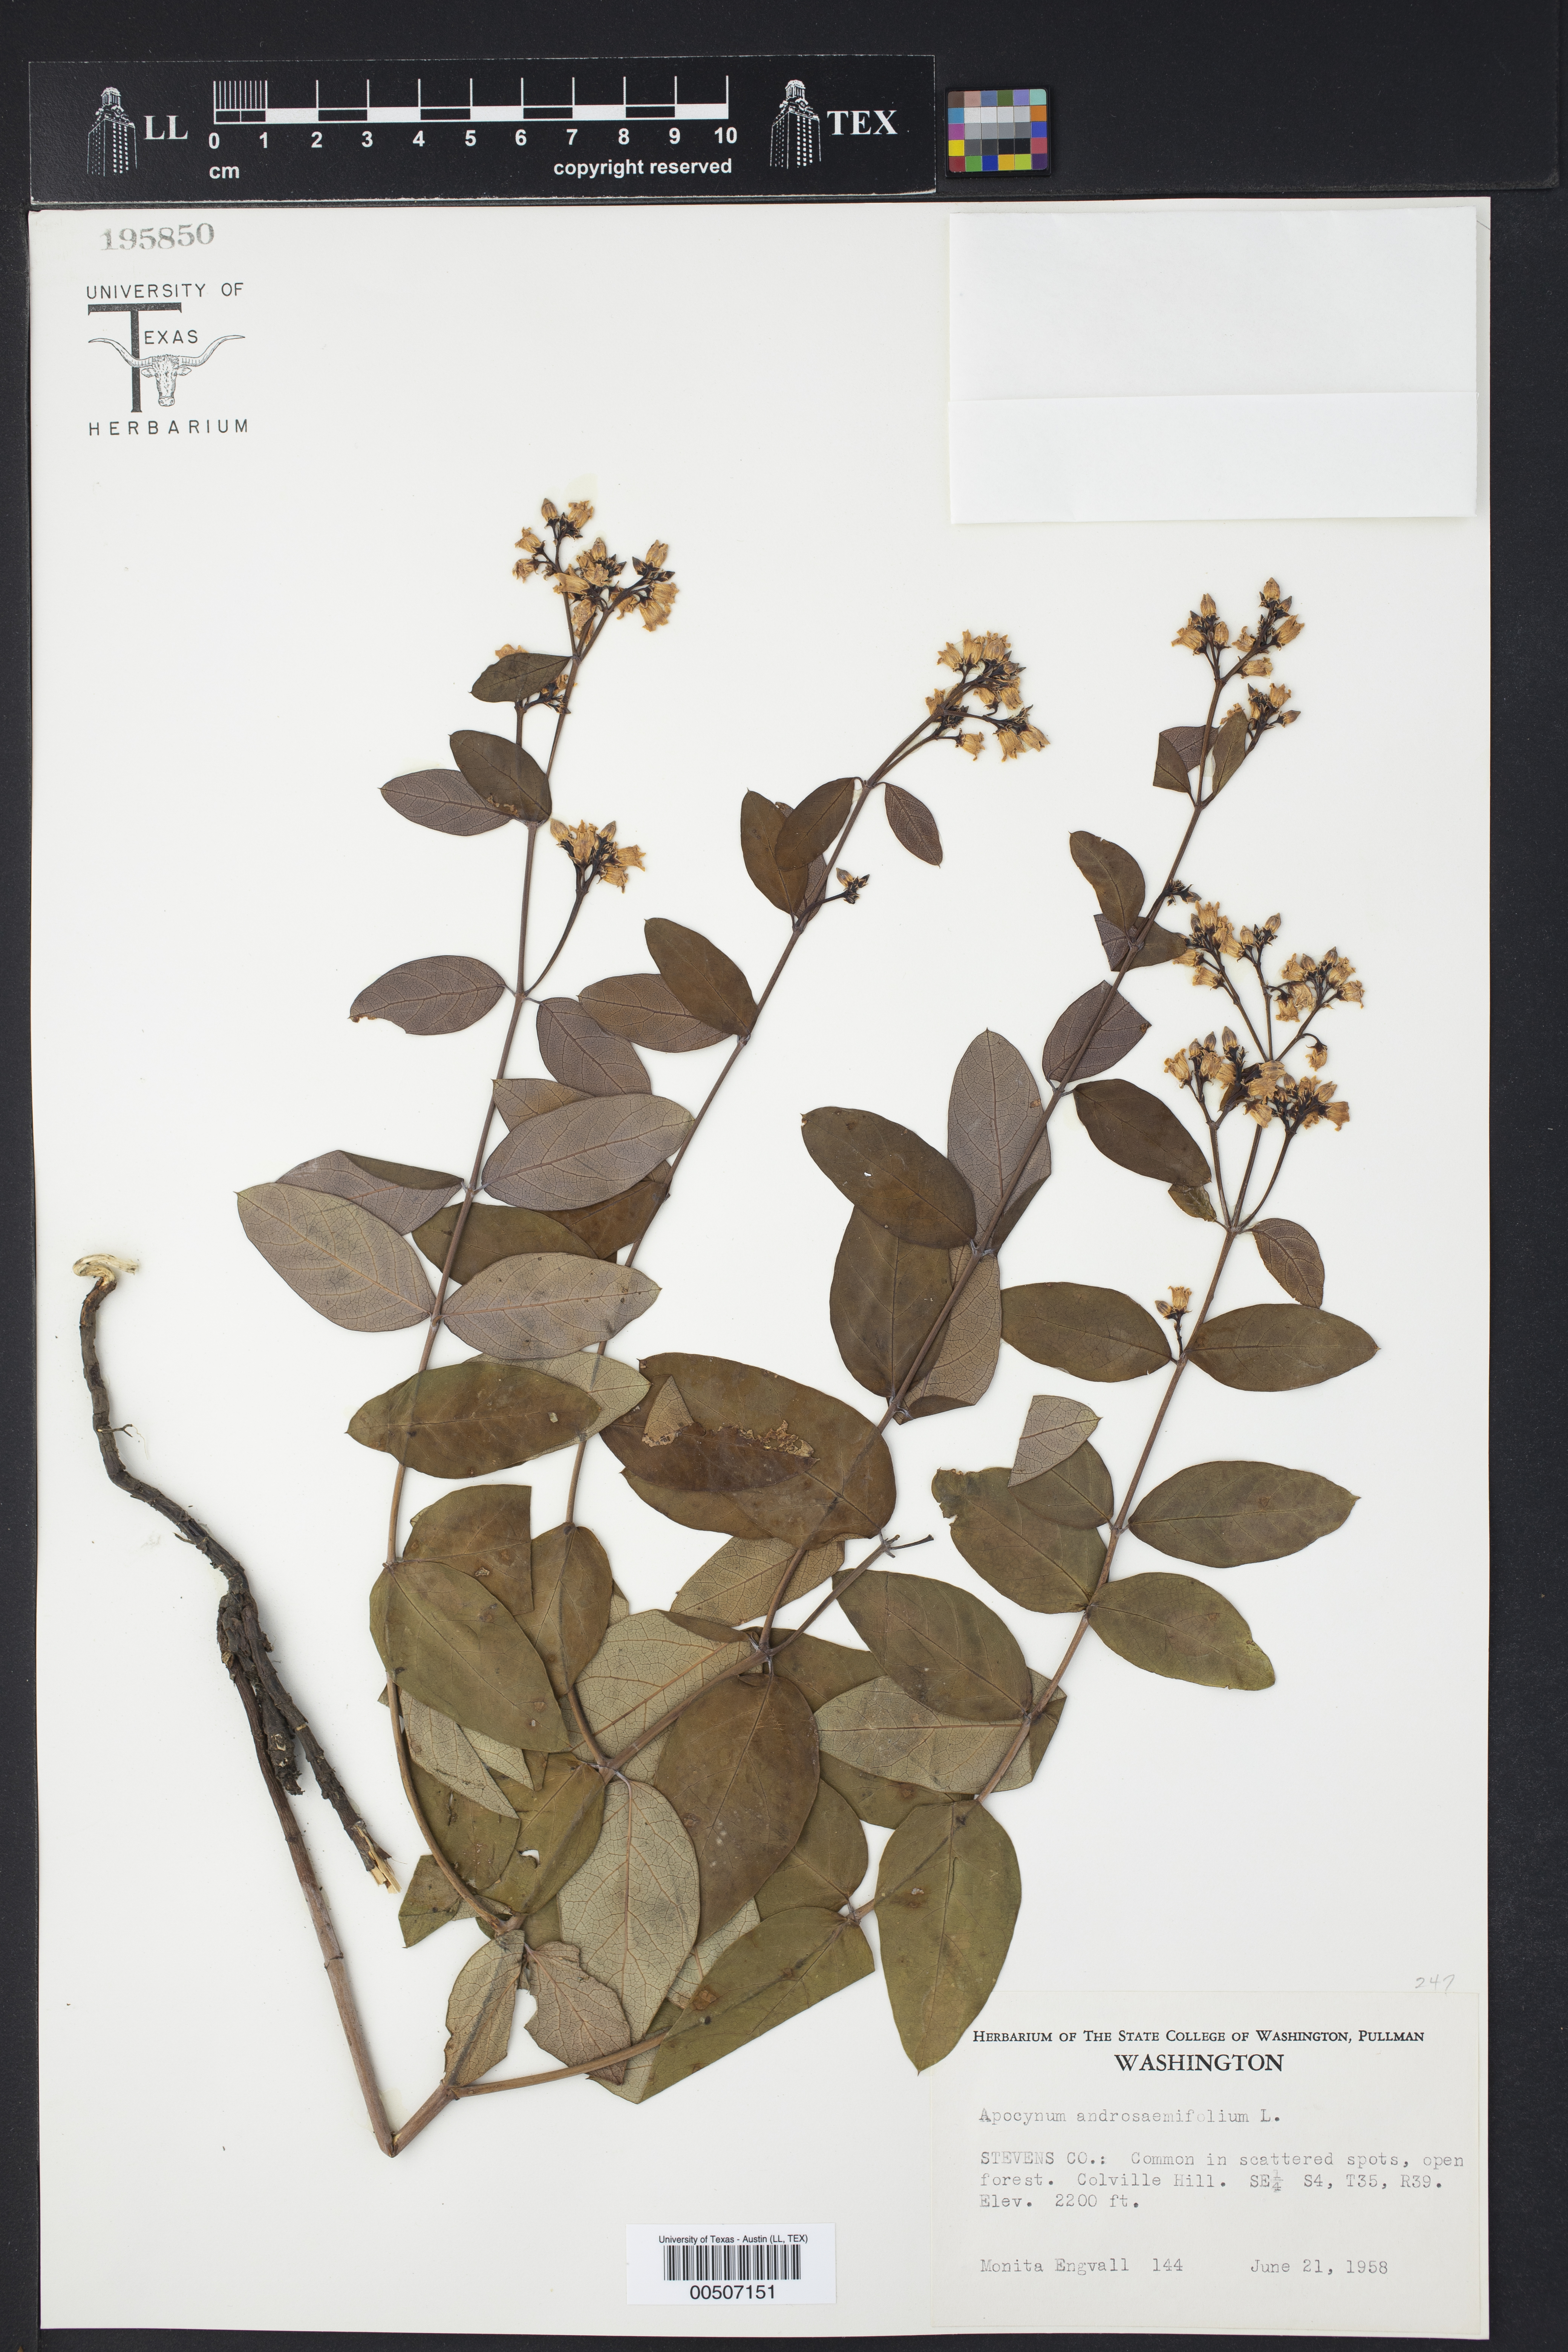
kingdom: Plantae
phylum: Tracheophyta
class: Magnoliopsida
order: Gentianales
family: Apocynaceae
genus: Apocynum
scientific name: Apocynum androsaemifolium
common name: Spreading dogbane
